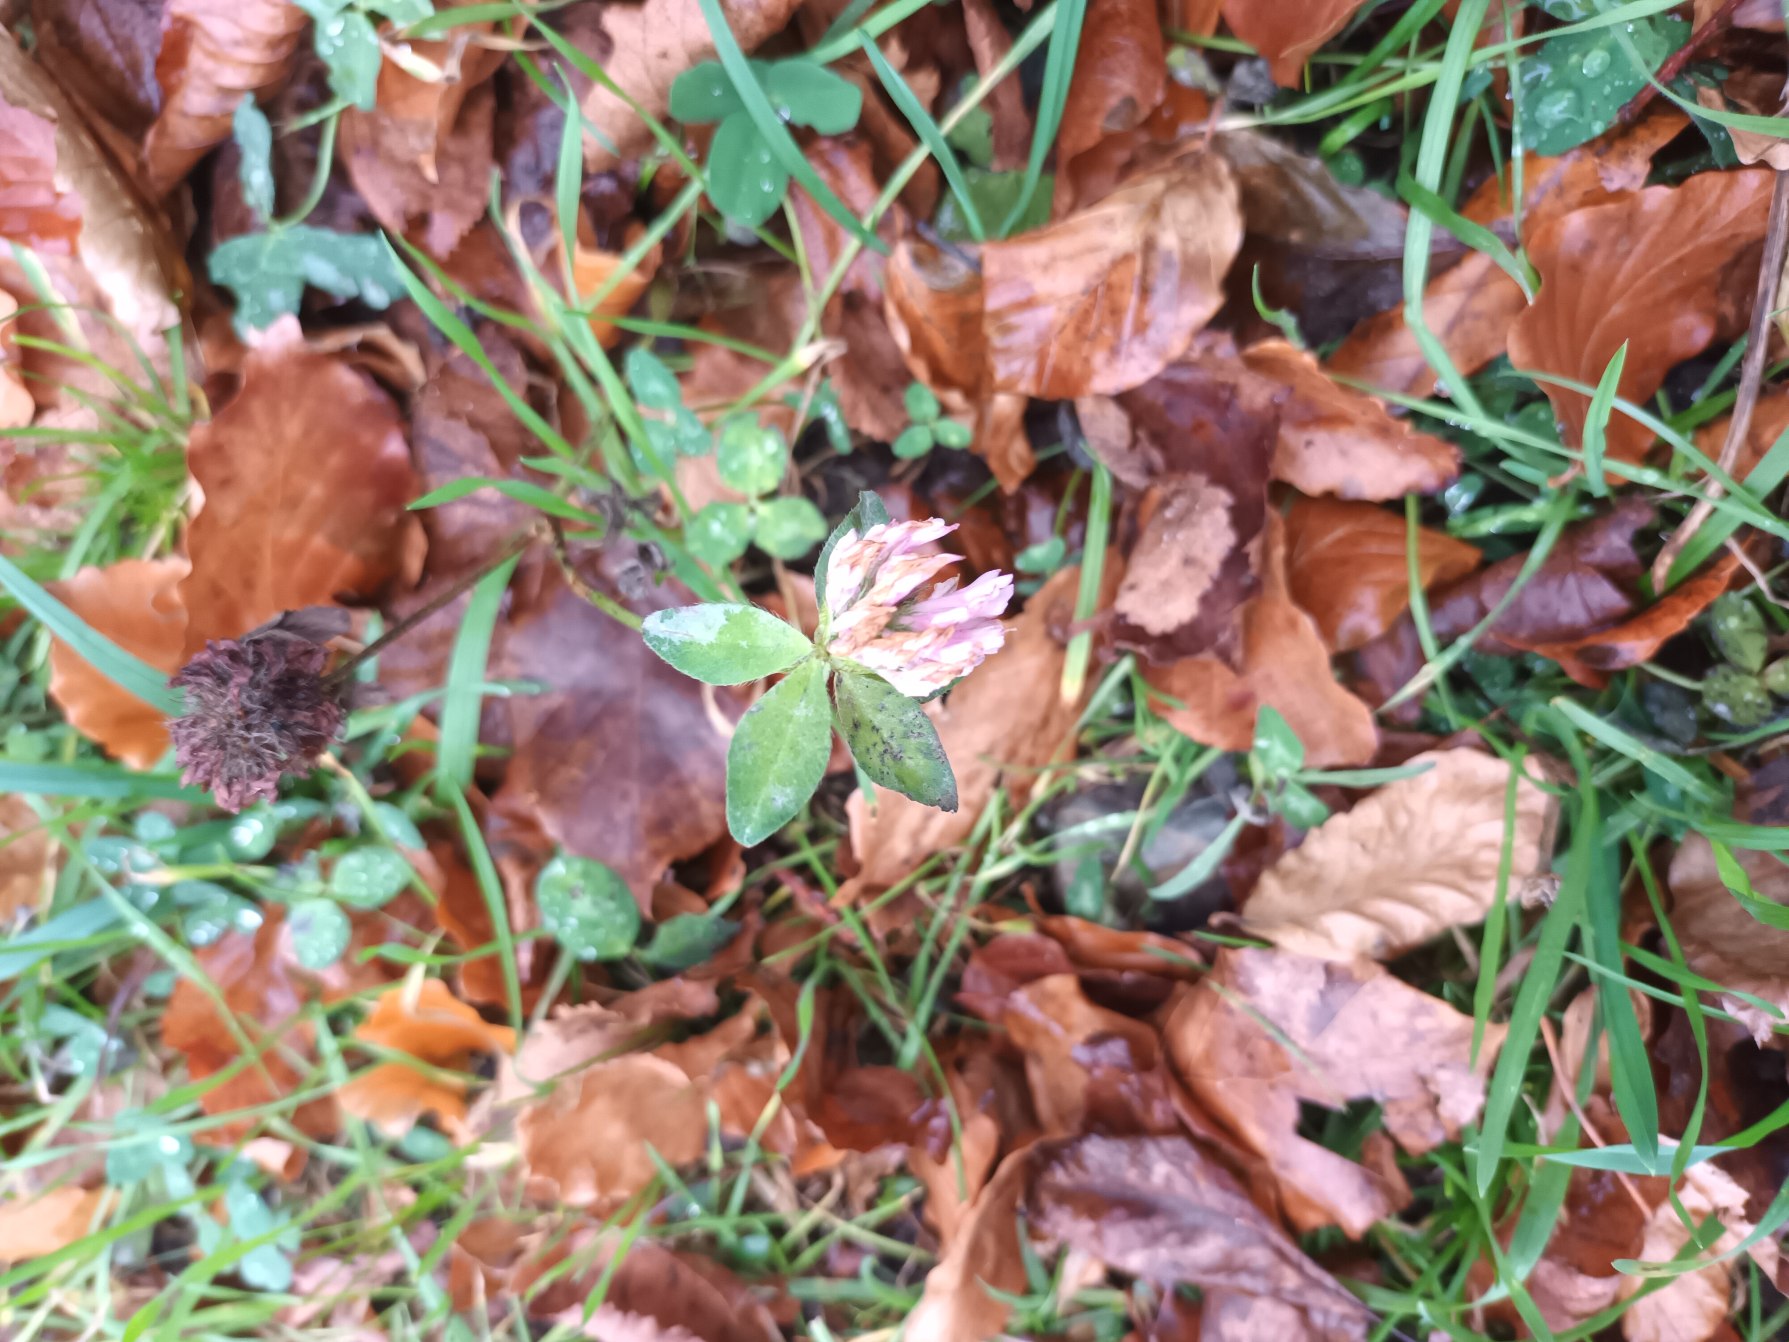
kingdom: Plantae
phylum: Tracheophyta
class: Magnoliopsida
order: Fabales
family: Fabaceae
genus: Trifolium
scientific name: Trifolium pratense
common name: Rød-kløver
